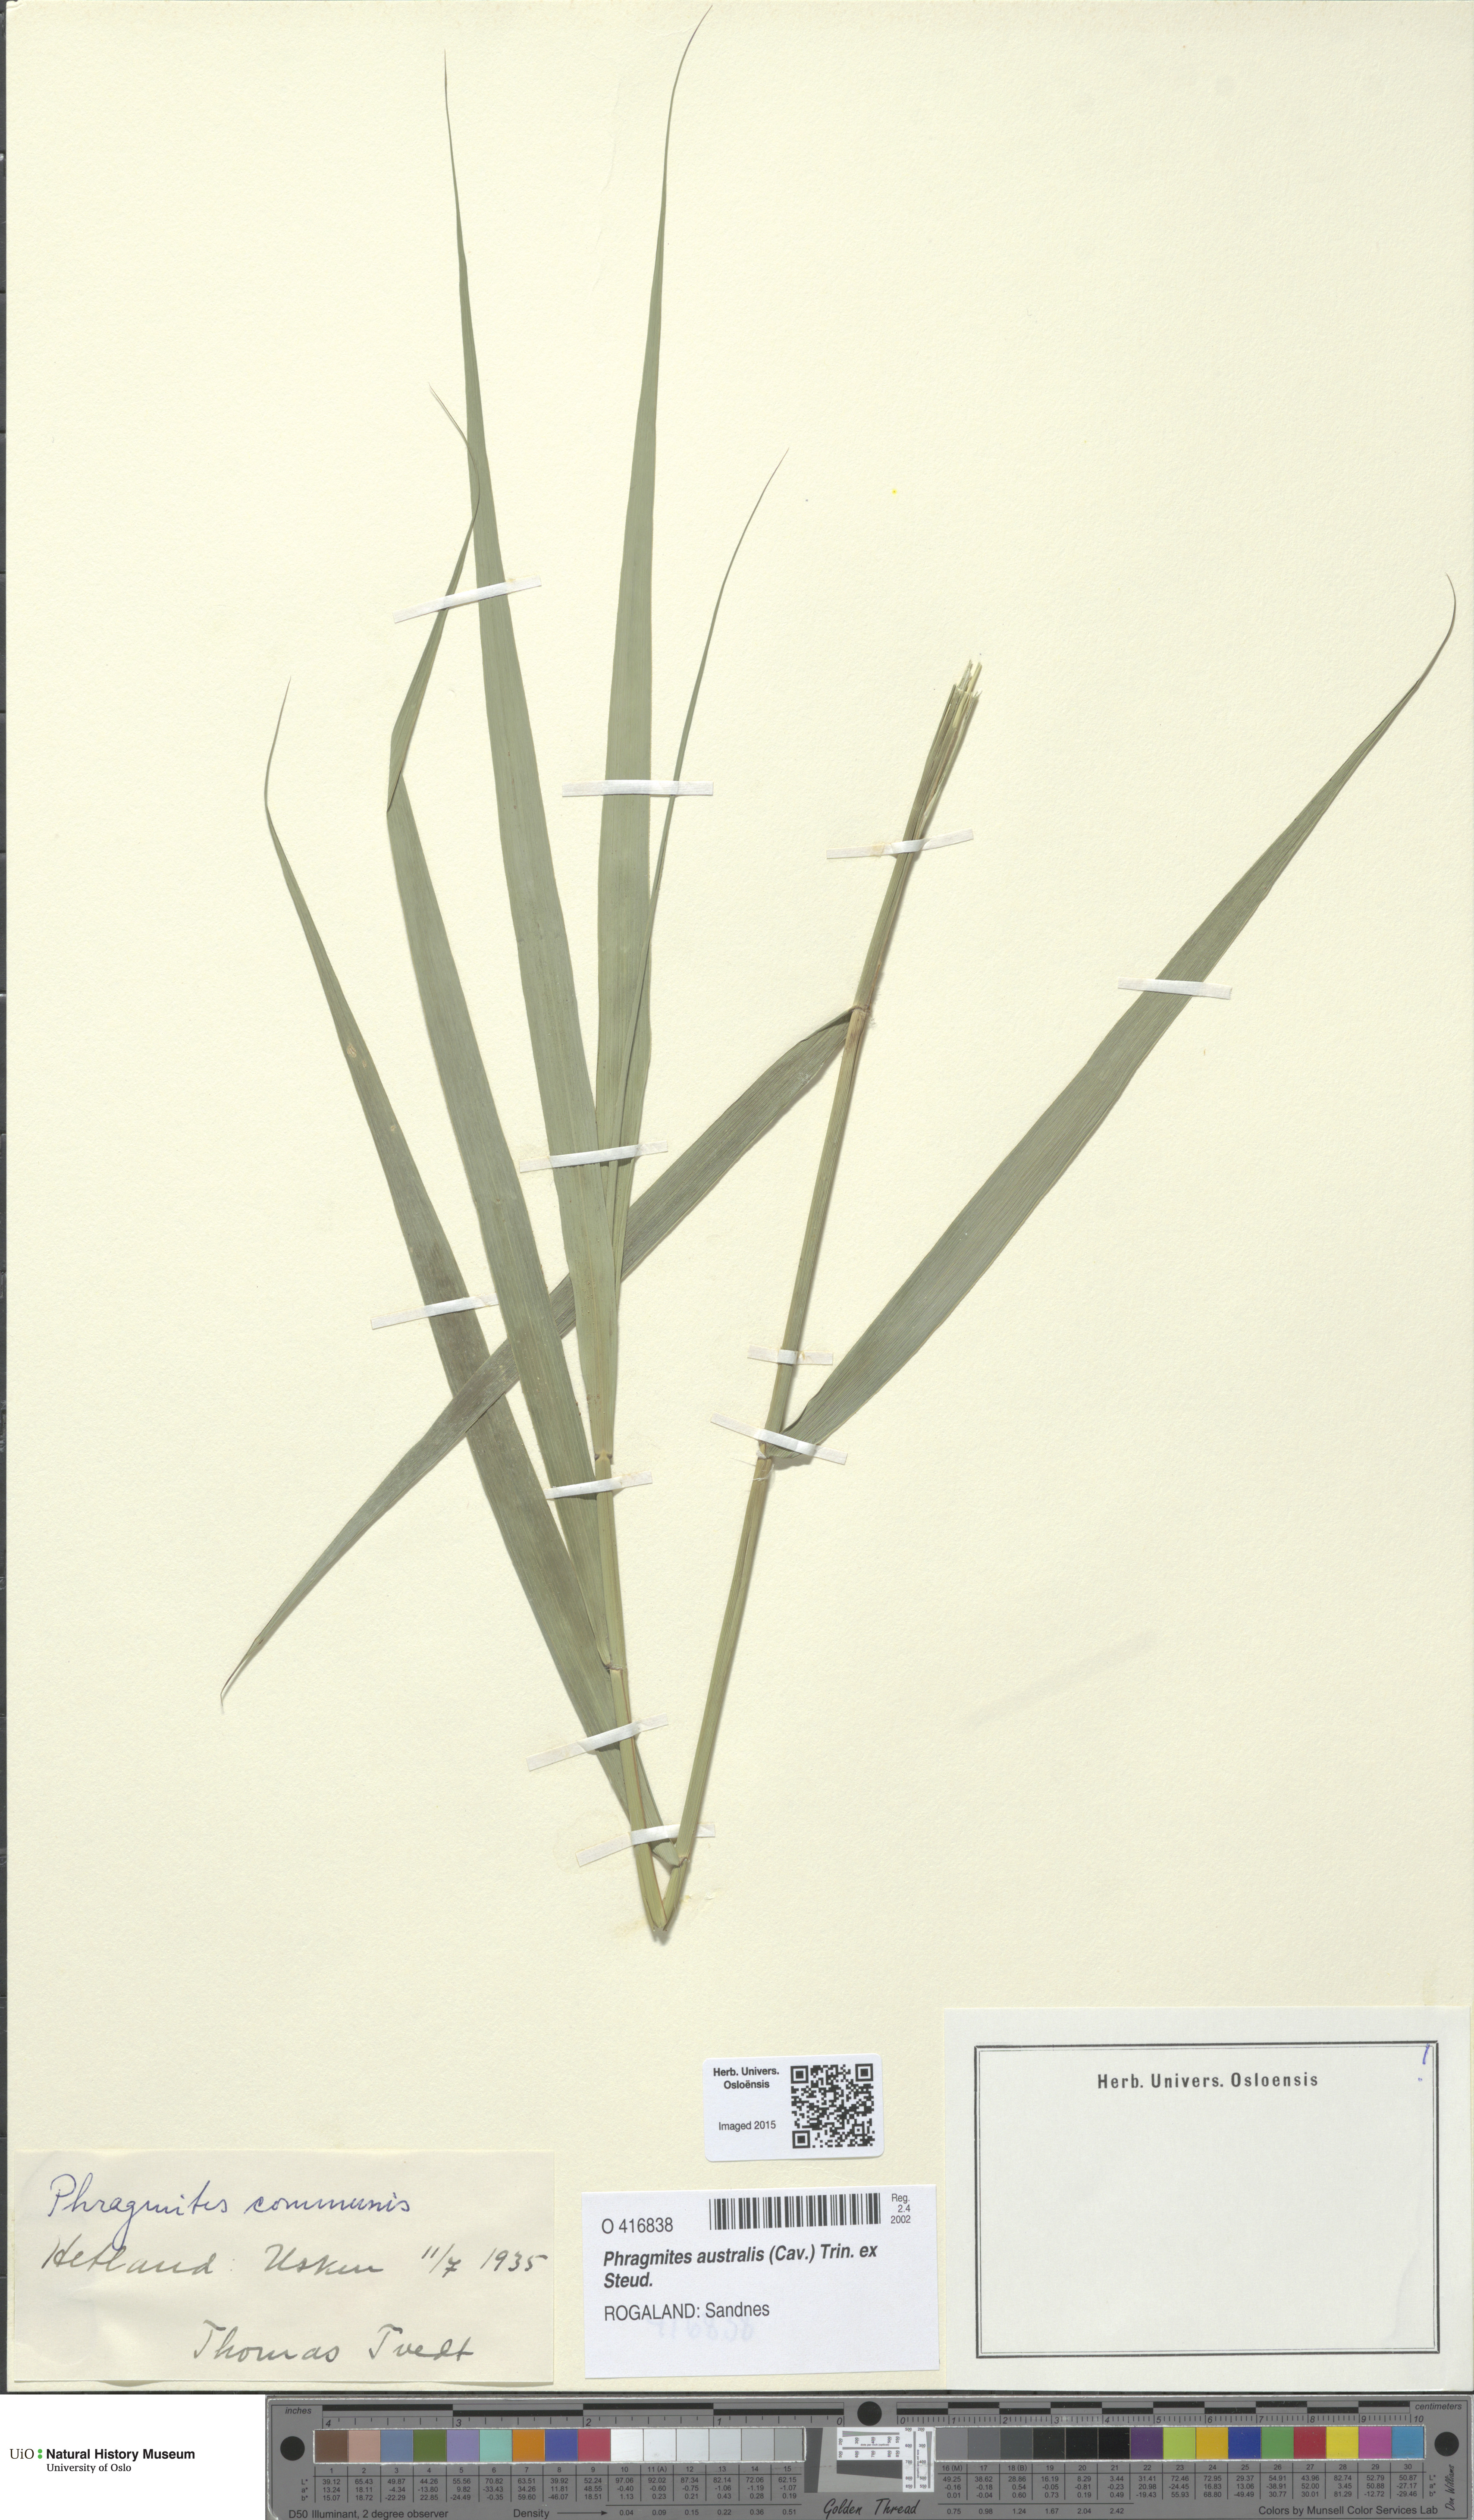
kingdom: Plantae
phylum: Tracheophyta
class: Liliopsida
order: Poales
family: Poaceae
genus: Phragmites
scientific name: Phragmites australis
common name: Common reed
